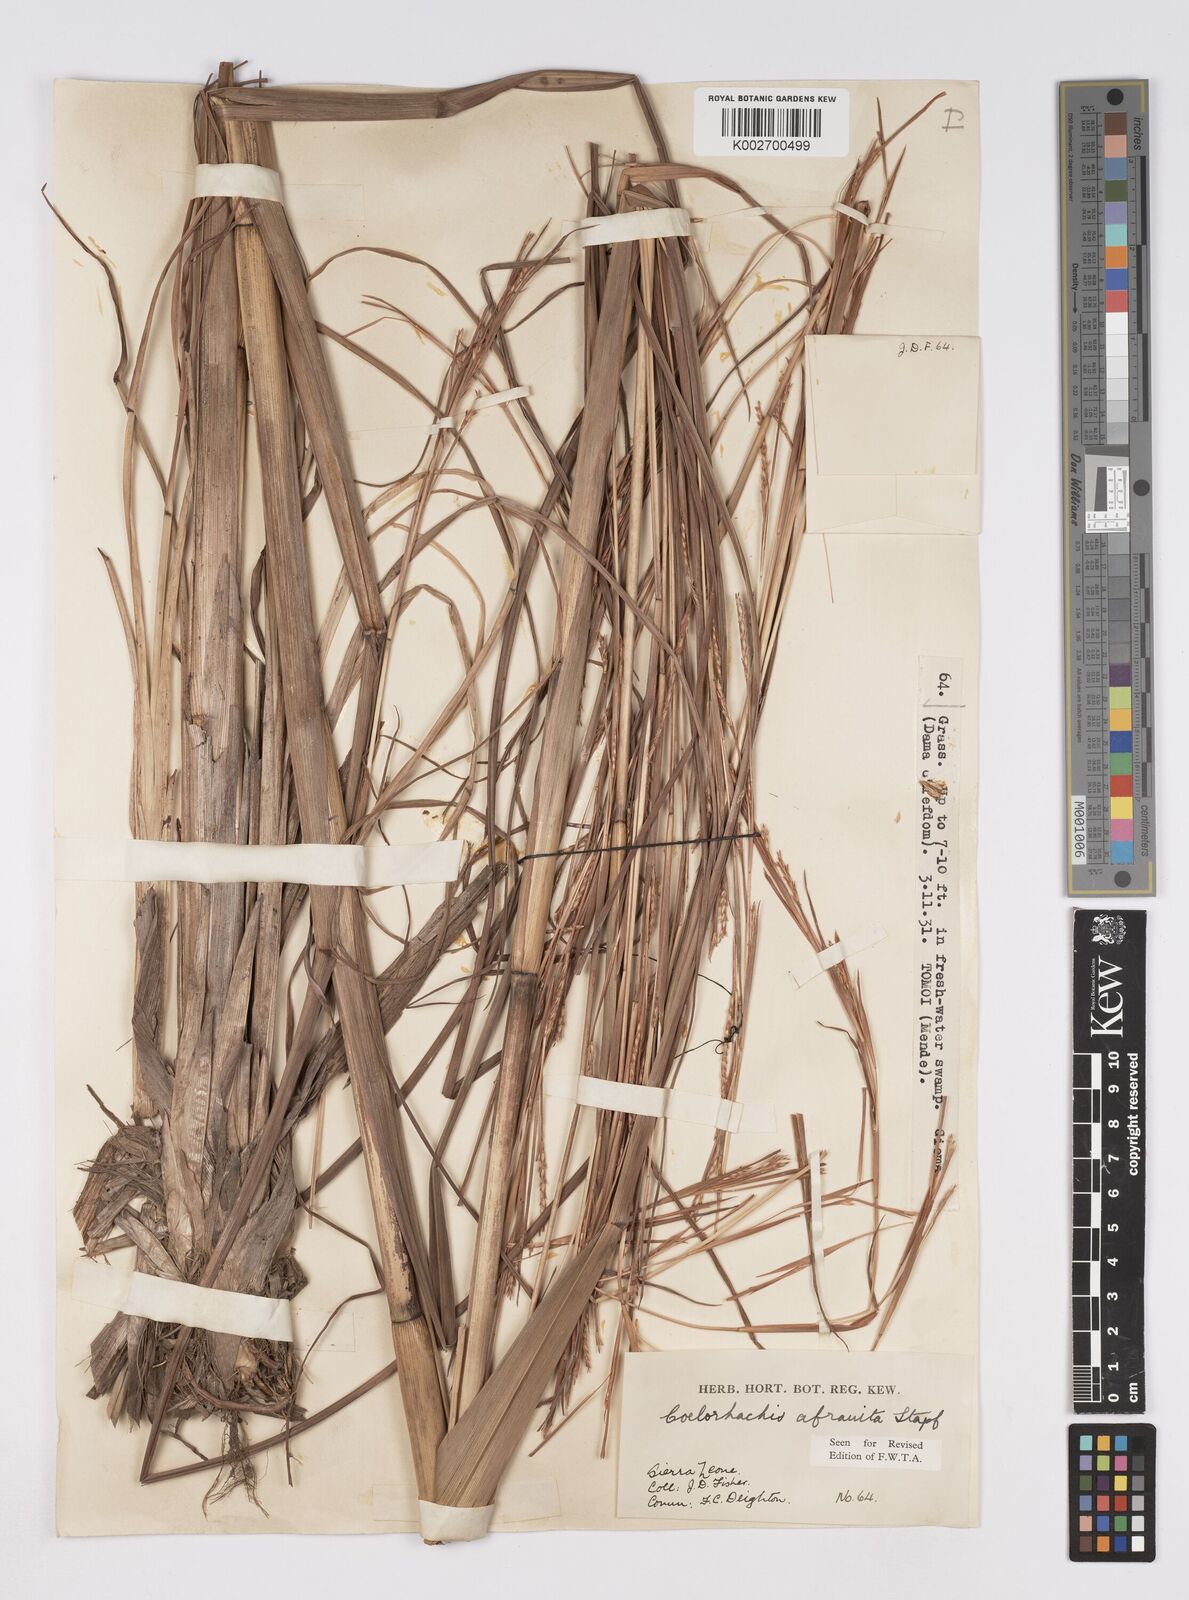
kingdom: Plantae
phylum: Tracheophyta
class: Liliopsida
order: Poales
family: Poaceae
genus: Rottboellia
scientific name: Rottboellia afraurita
